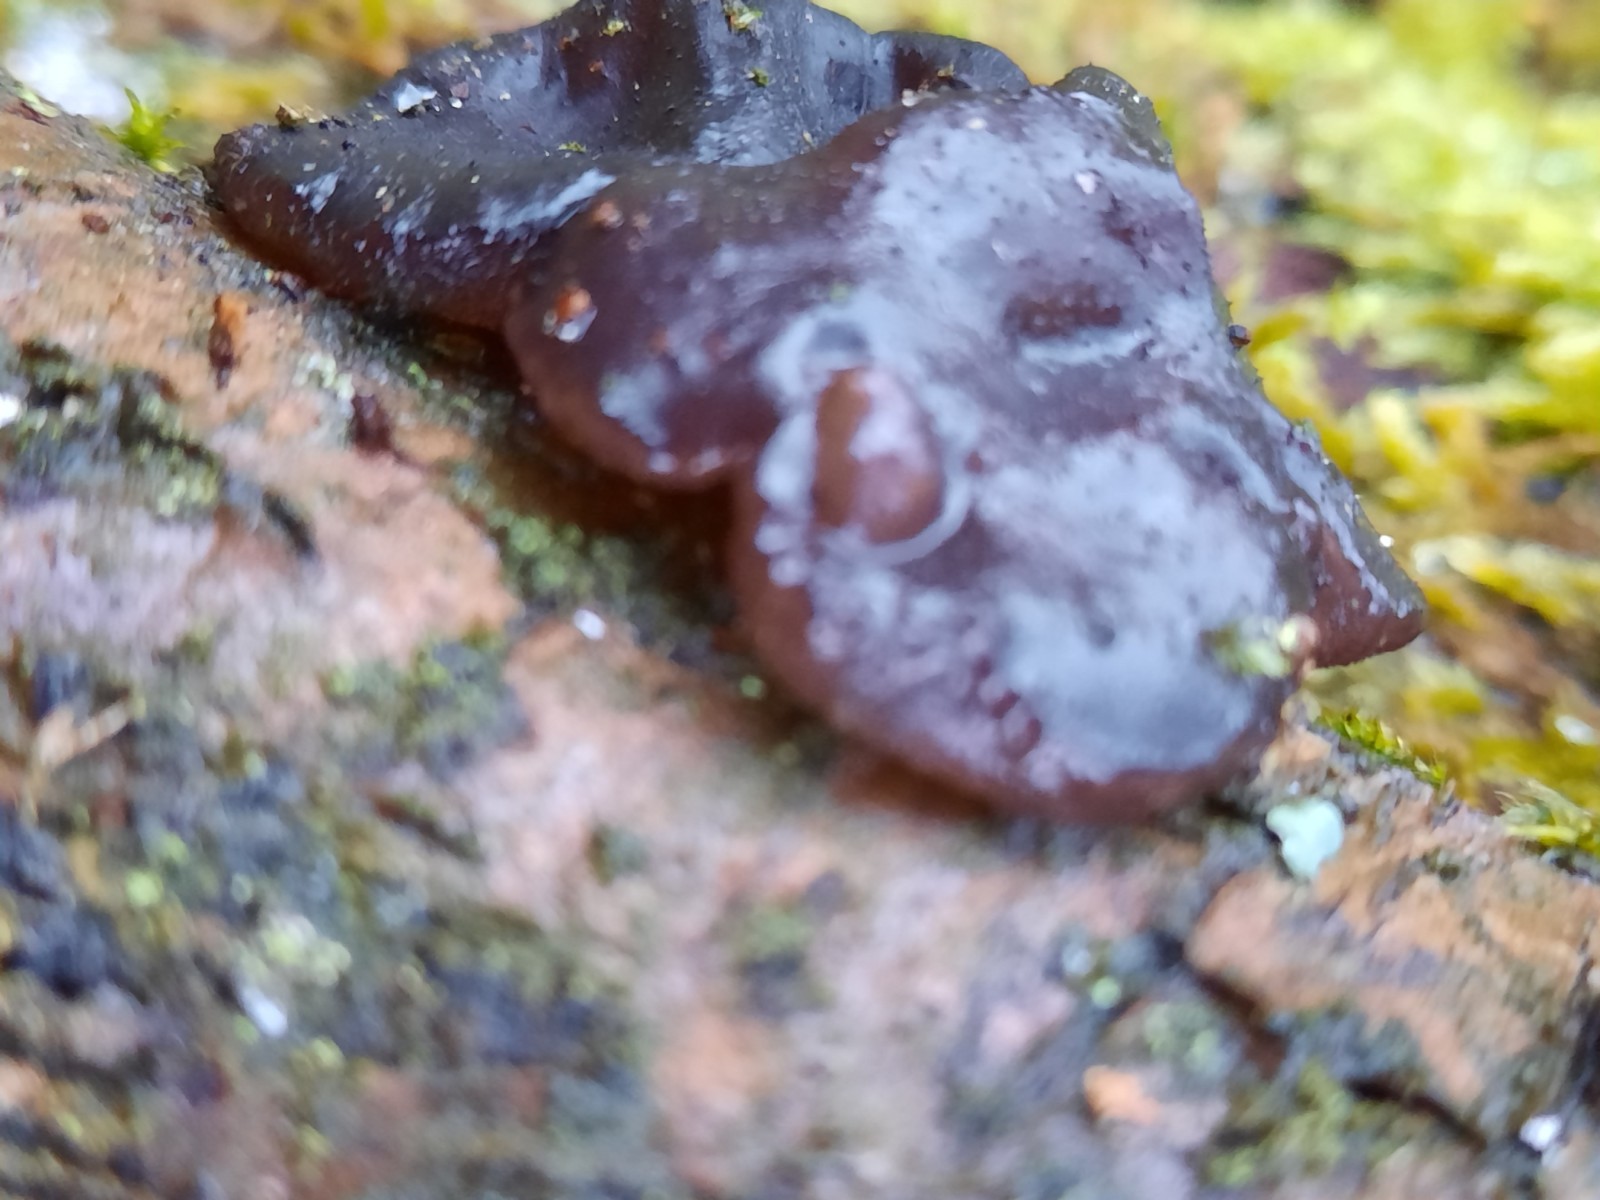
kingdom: Fungi
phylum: Basidiomycota
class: Tremellomycetes
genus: Heteromycophaga
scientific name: Heteromycophaga glandulosae
